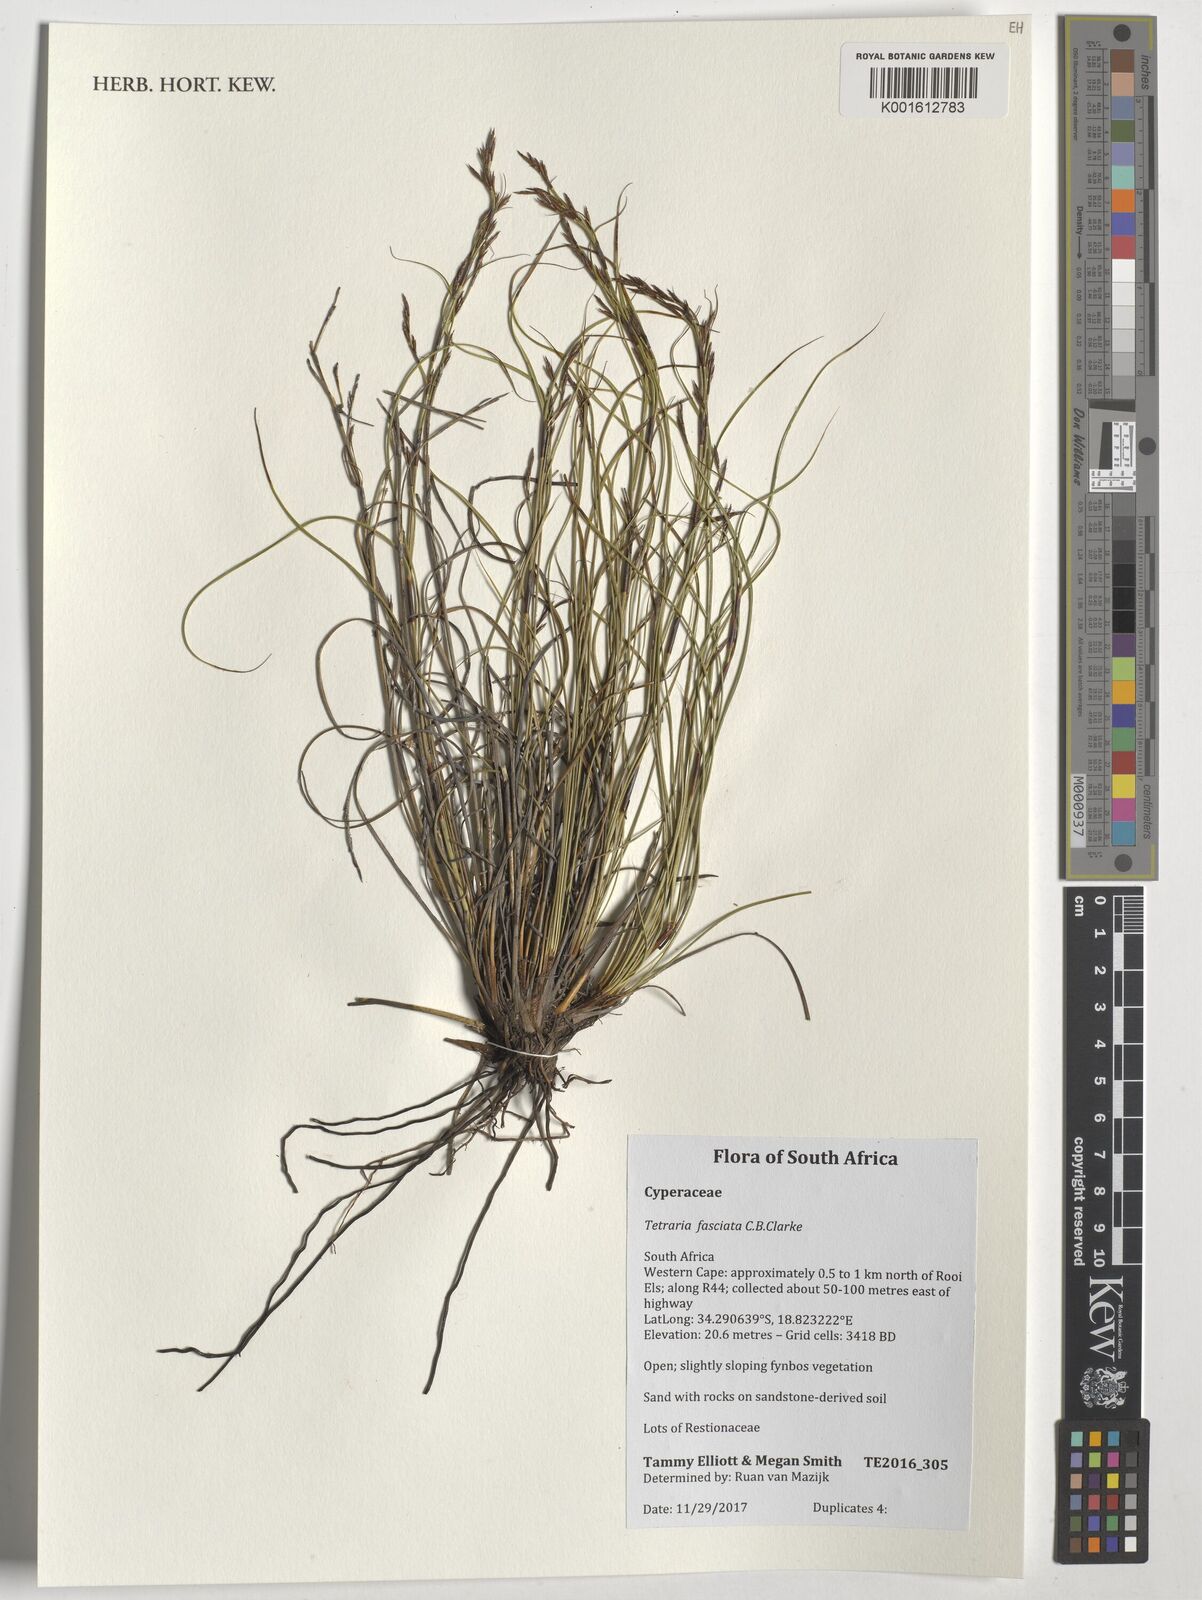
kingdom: Plantae
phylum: Tracheophyta
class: Liliopsida
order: Poales
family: Cyperaceae
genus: Tetraria
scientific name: Tetraria fasciata
